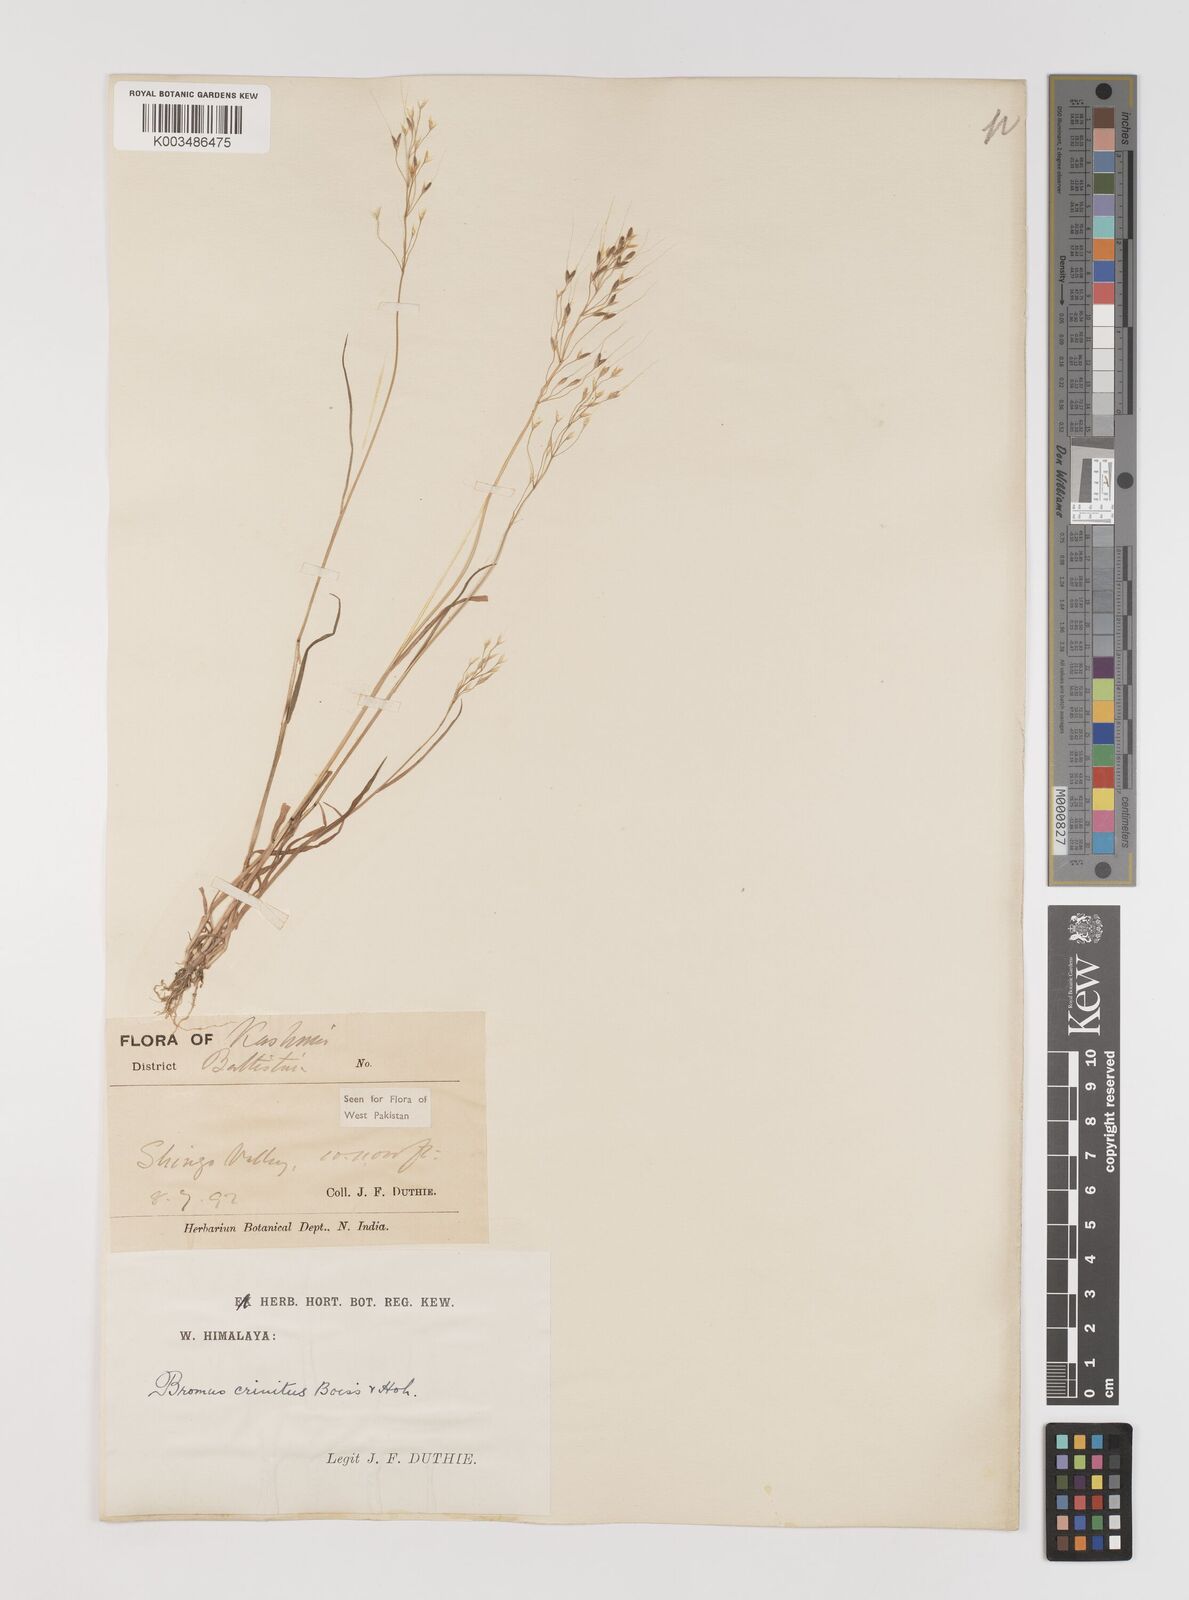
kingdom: Plantae
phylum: Tracheophyta
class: Liliopsida
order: Poales
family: Poaceae
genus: Bromus
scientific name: Bromus gracillimus
